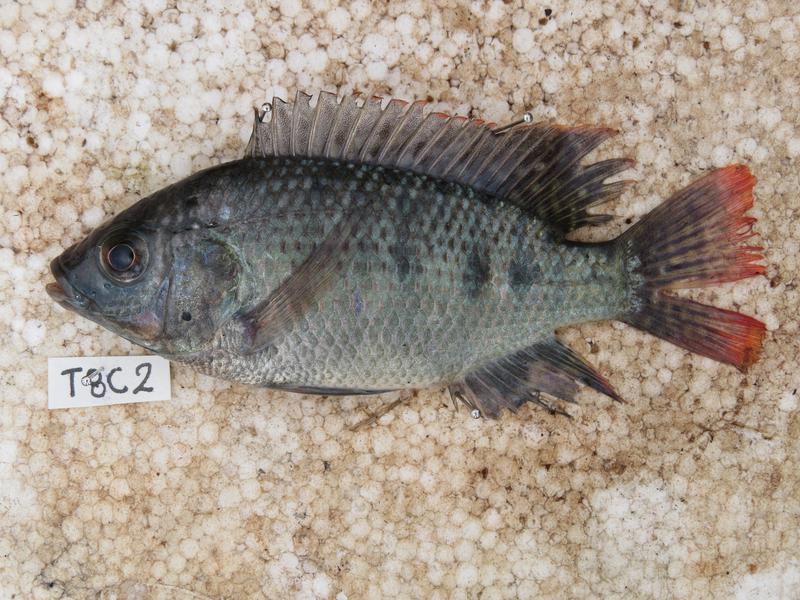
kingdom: Animalia
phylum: Chordata
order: Perciformes
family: Cichlidae
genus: Oreochromis
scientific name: Oreochromis shiranus
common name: Chilwa tilapia
